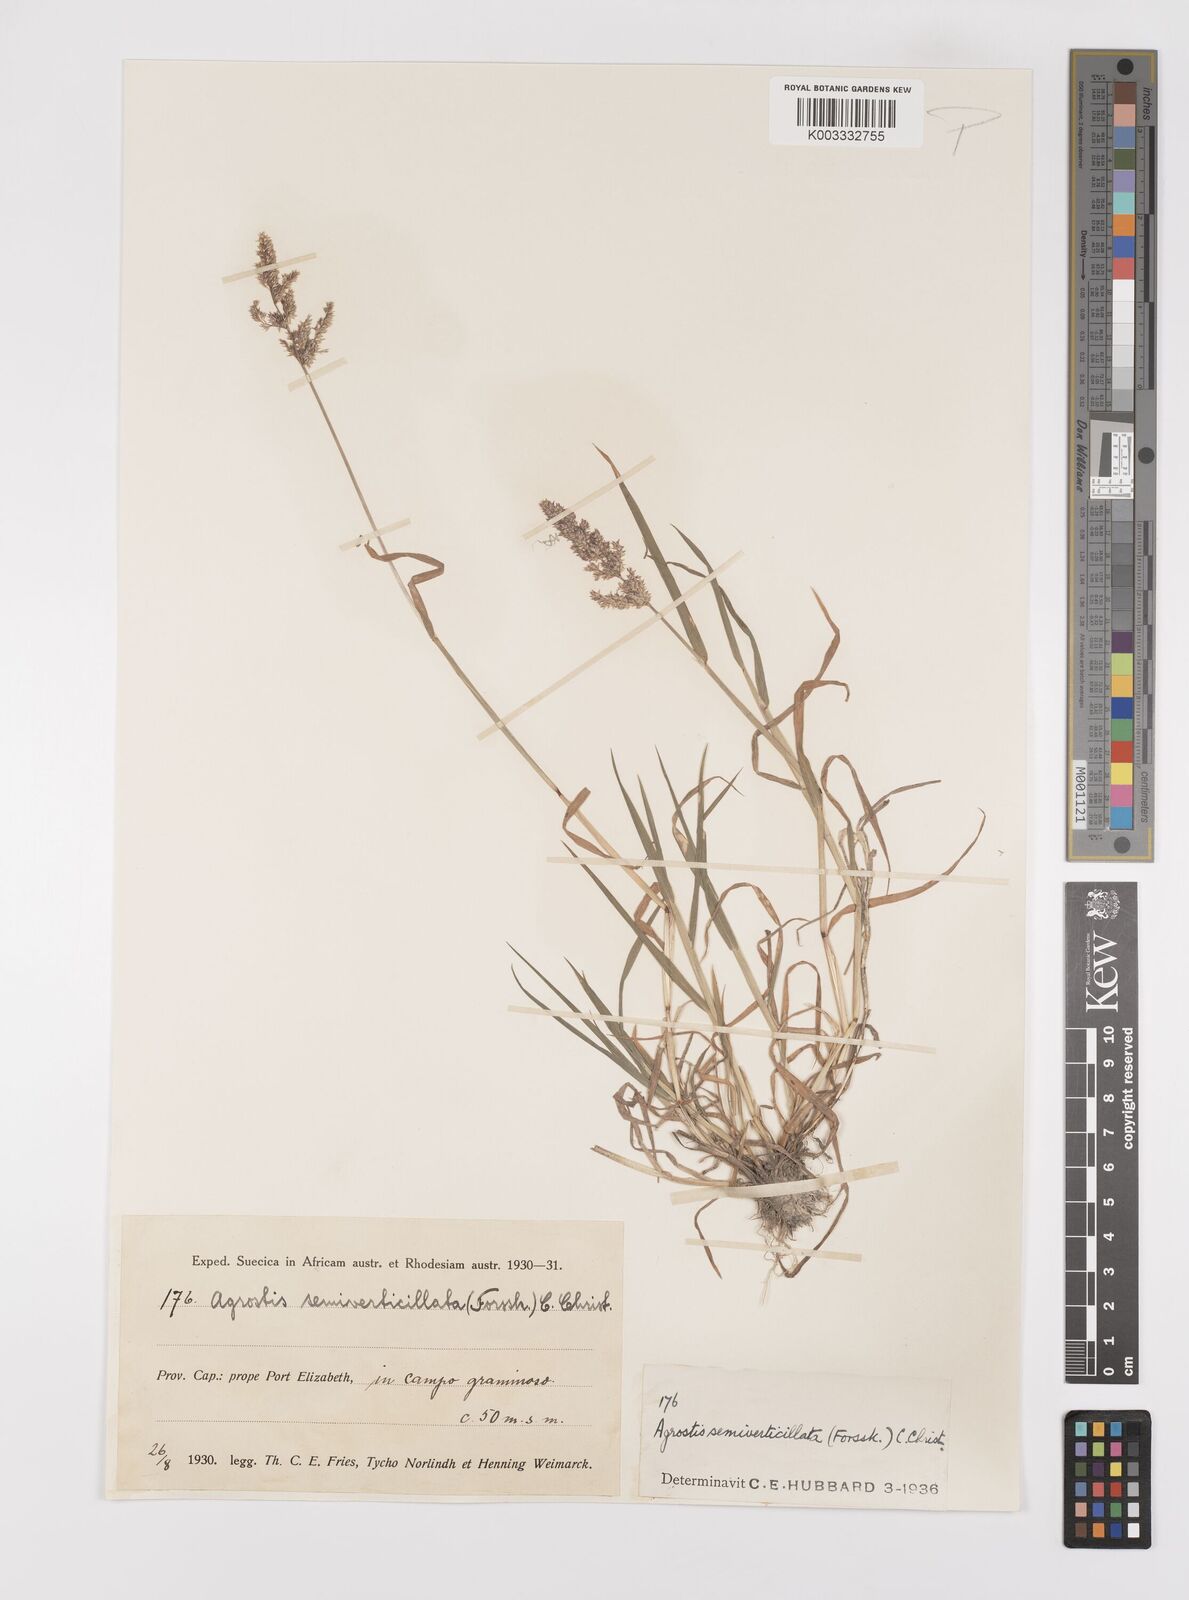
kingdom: Plantae
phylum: Tracheophyta
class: Liliopsida
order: Poales
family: Poaceae
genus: Polypogon
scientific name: Polypogon viridis
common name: Water bent
